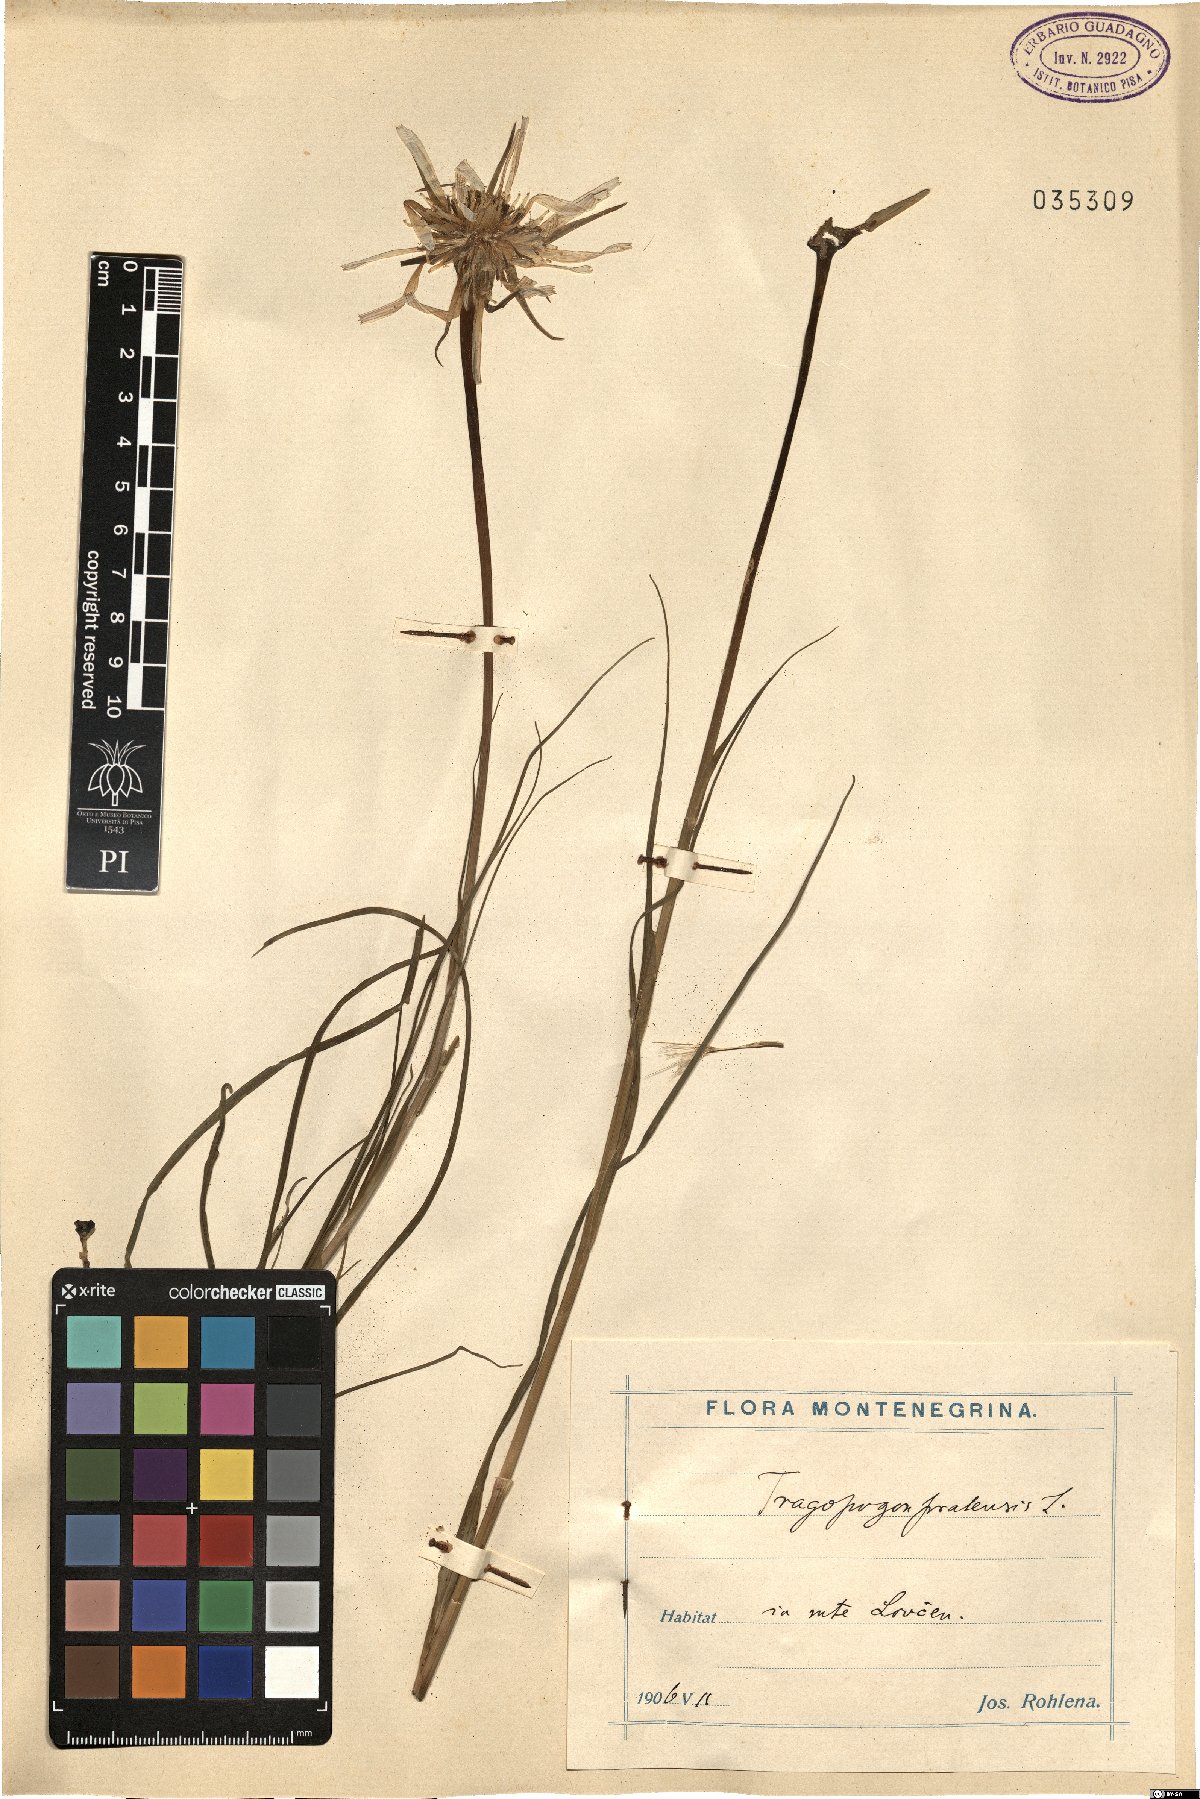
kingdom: Plantae
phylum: Tracheophyta
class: Magnoliopsida
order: Asterales
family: Asteraceae
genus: Tragopogon
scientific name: Tragopogon pratensis
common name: Goat's-beard
